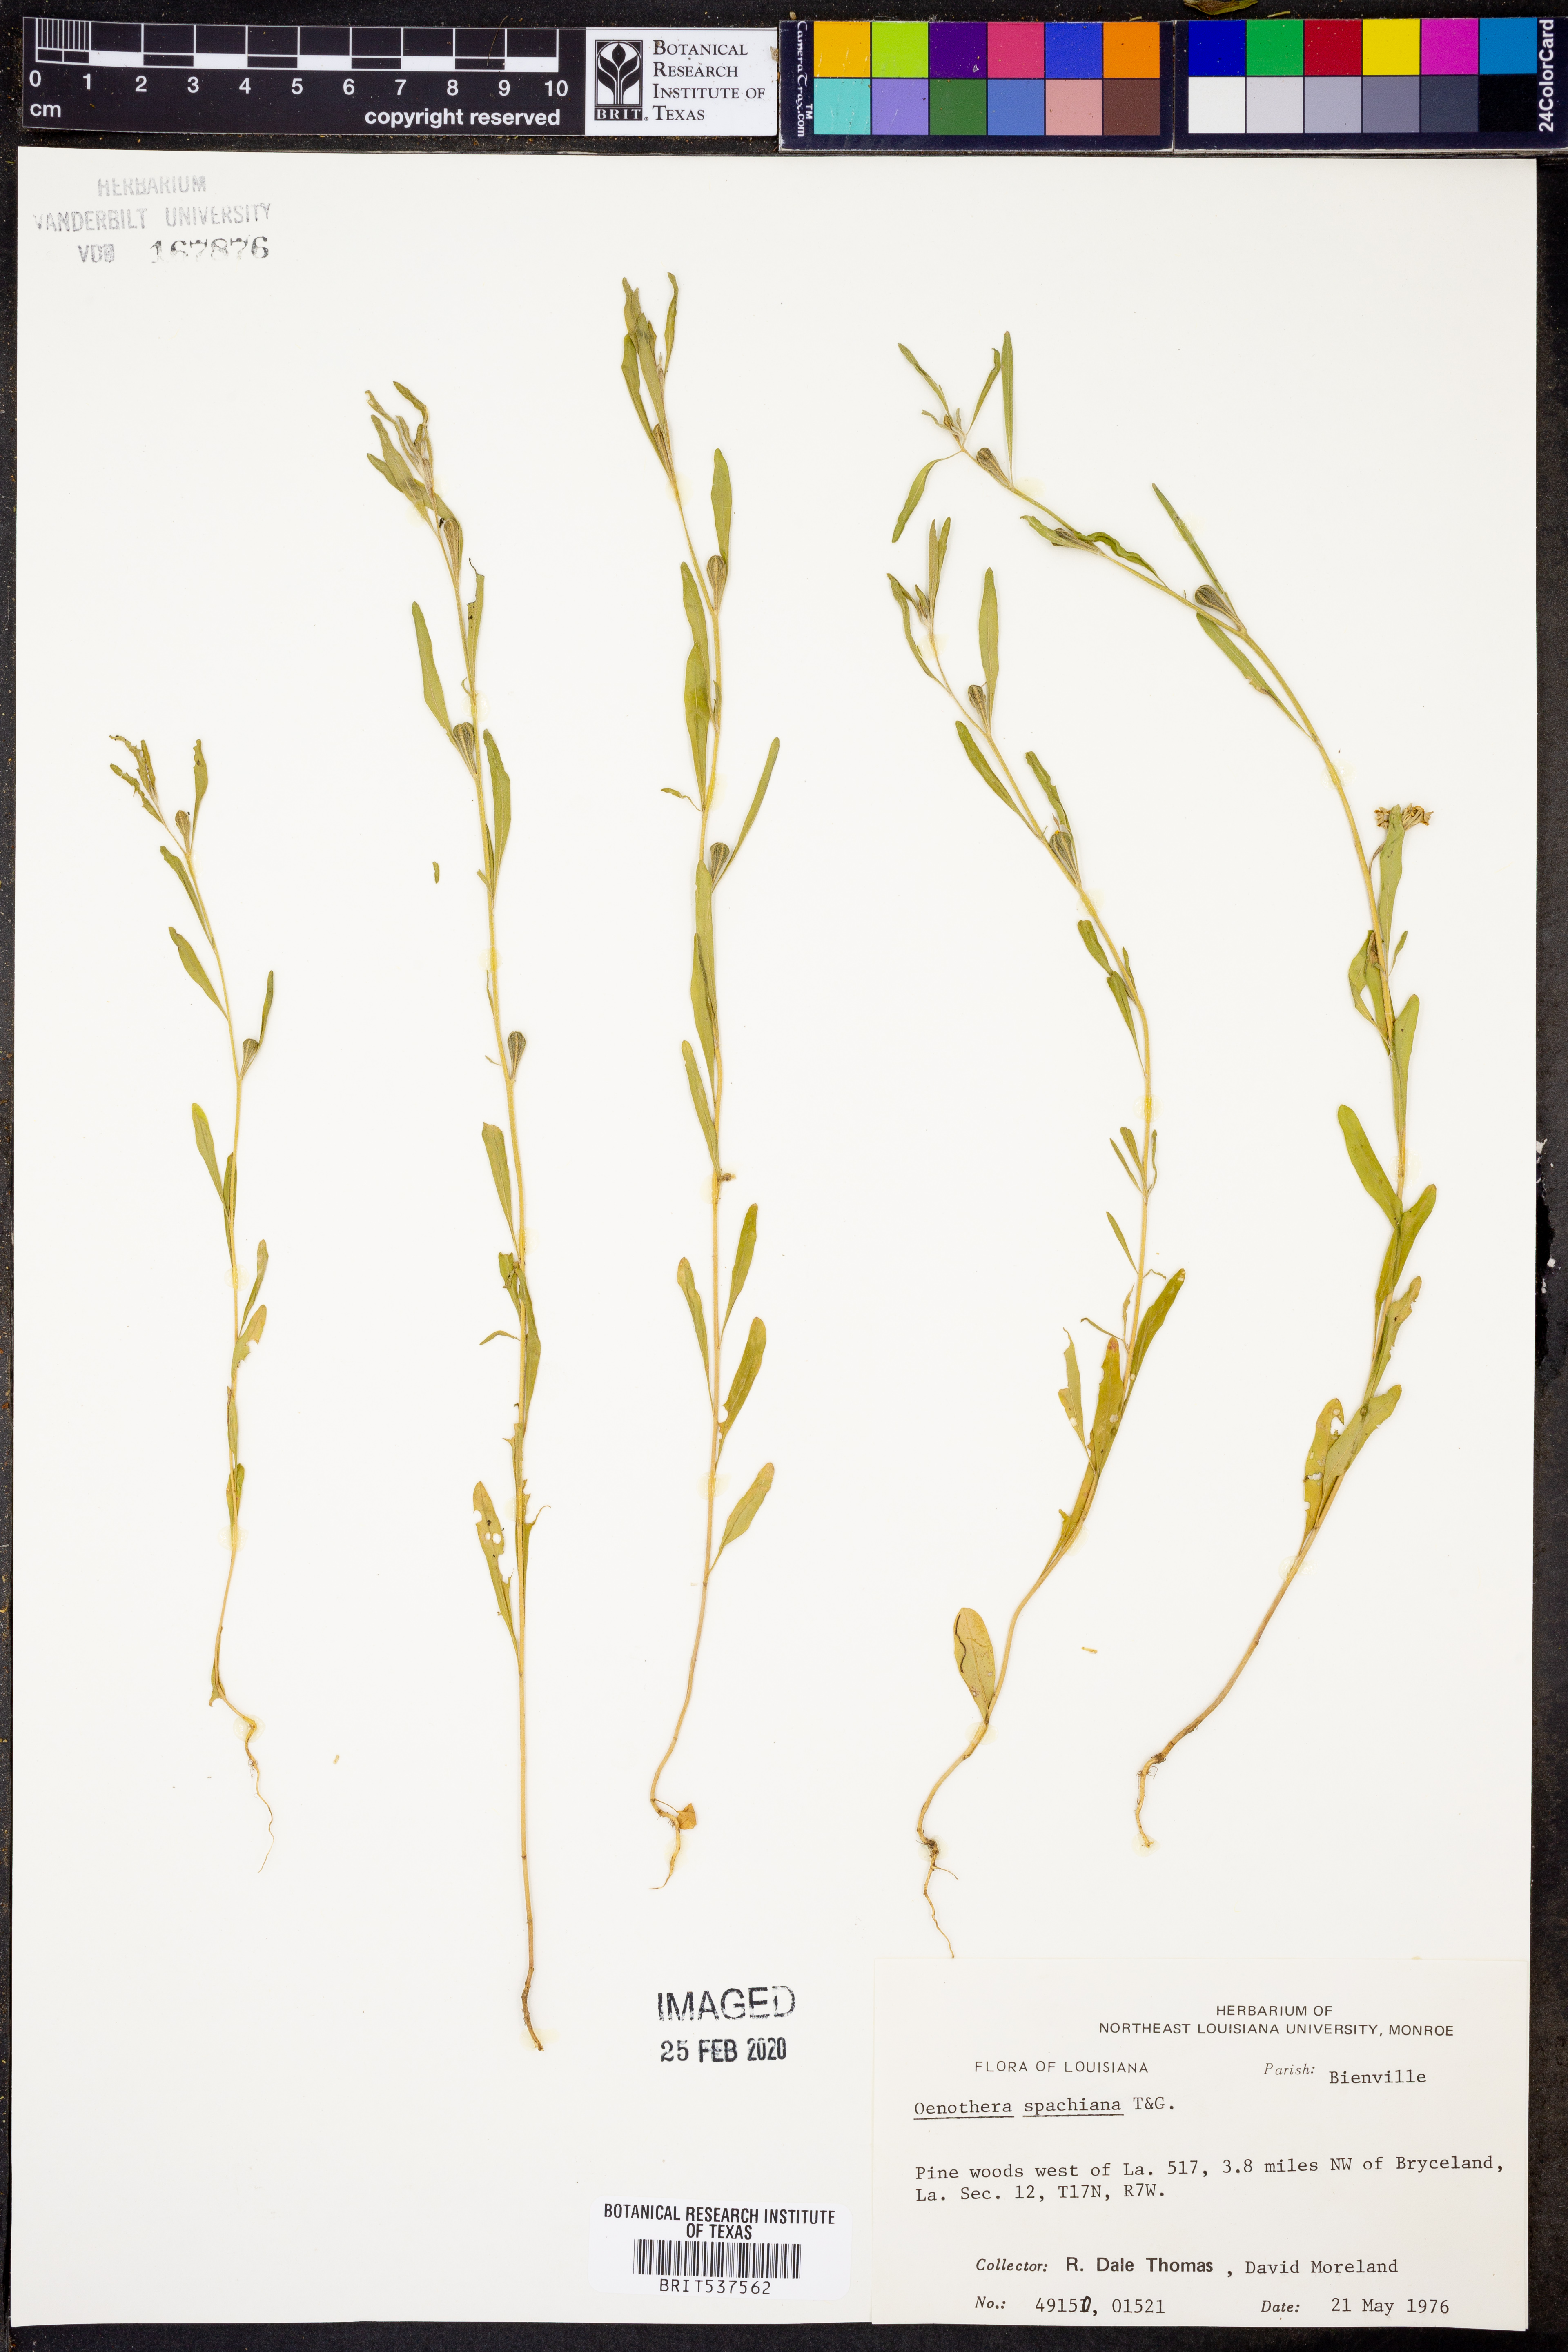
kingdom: Plantae
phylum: Tracheophyta
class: Magnoliopsida
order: Myrtales
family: Onagraceae
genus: Oenothera
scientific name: Oenothera spachiana
